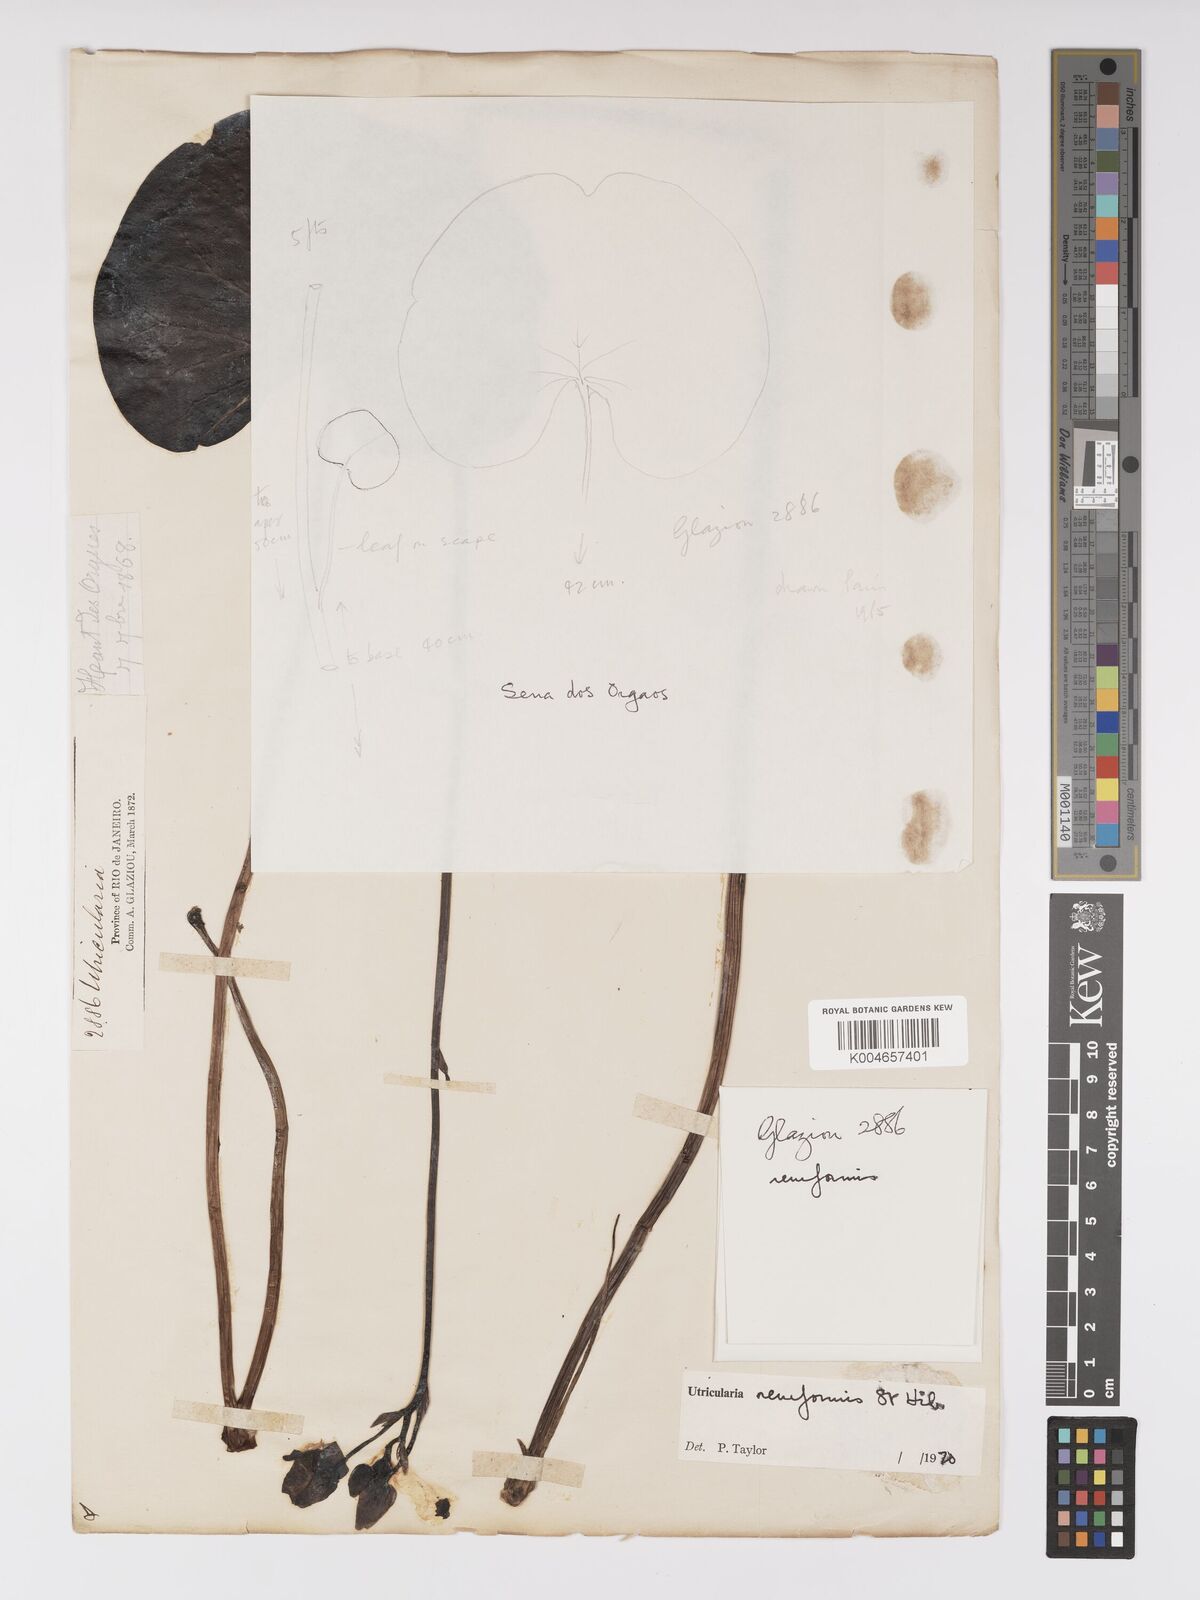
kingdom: Plantae
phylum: Tracheophyta
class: Magnoliopsida
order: Lamiales
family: Lentibulariaceae
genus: Utricularia
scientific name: Utricularia reniformis
